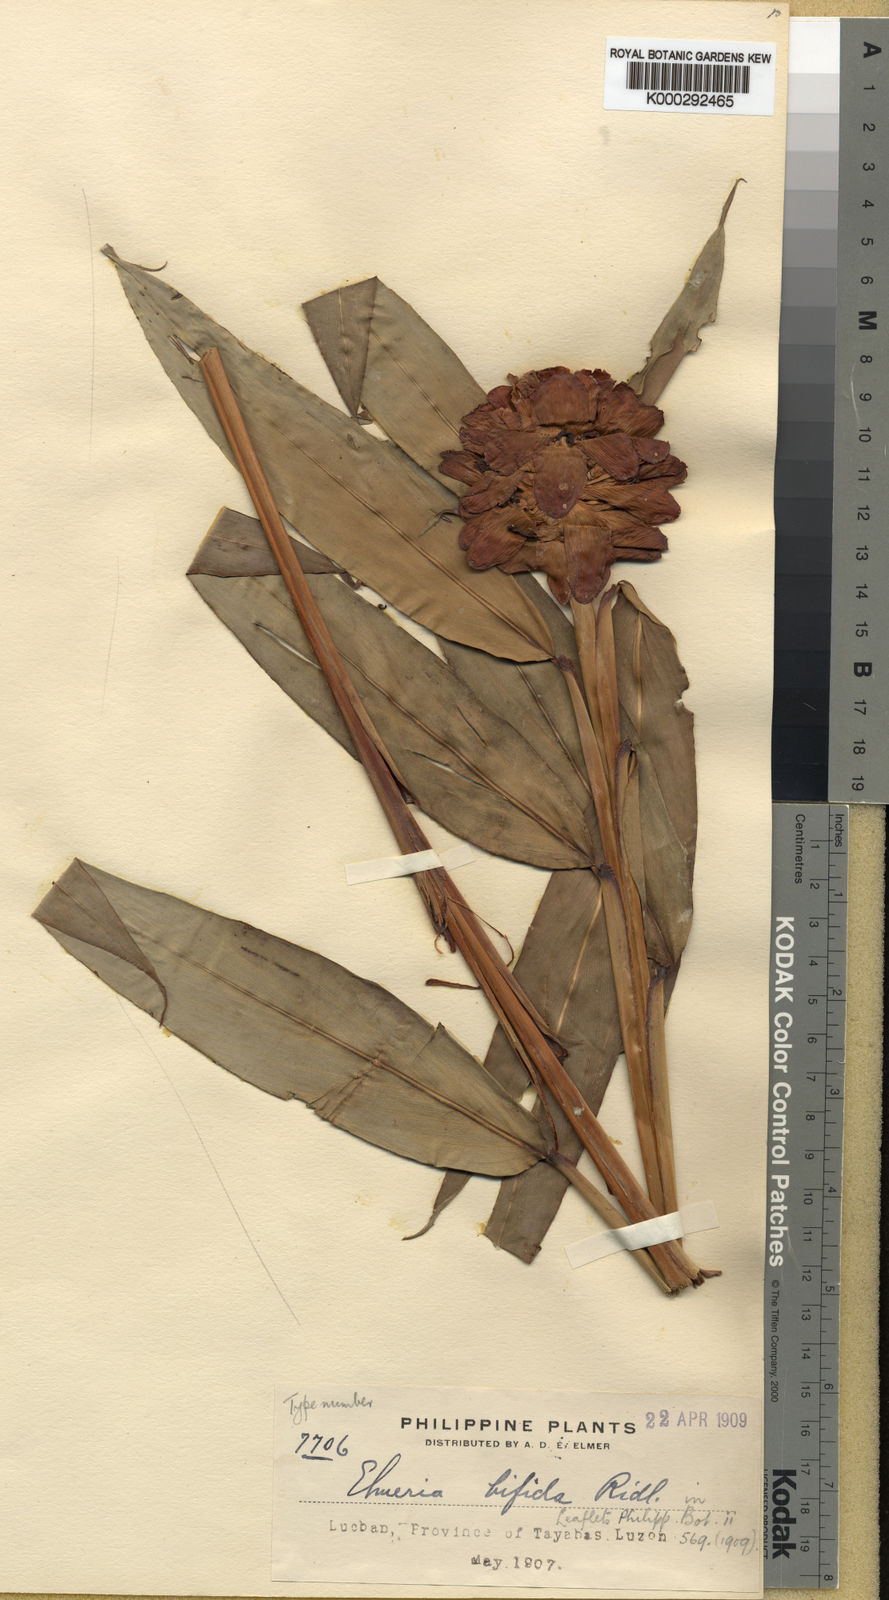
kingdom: Plantae
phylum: Tracheophyta
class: Liliopsida
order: Zingiberales
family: Zingiberaceae
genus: Adelmeria
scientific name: Adelmeria dicranochila
